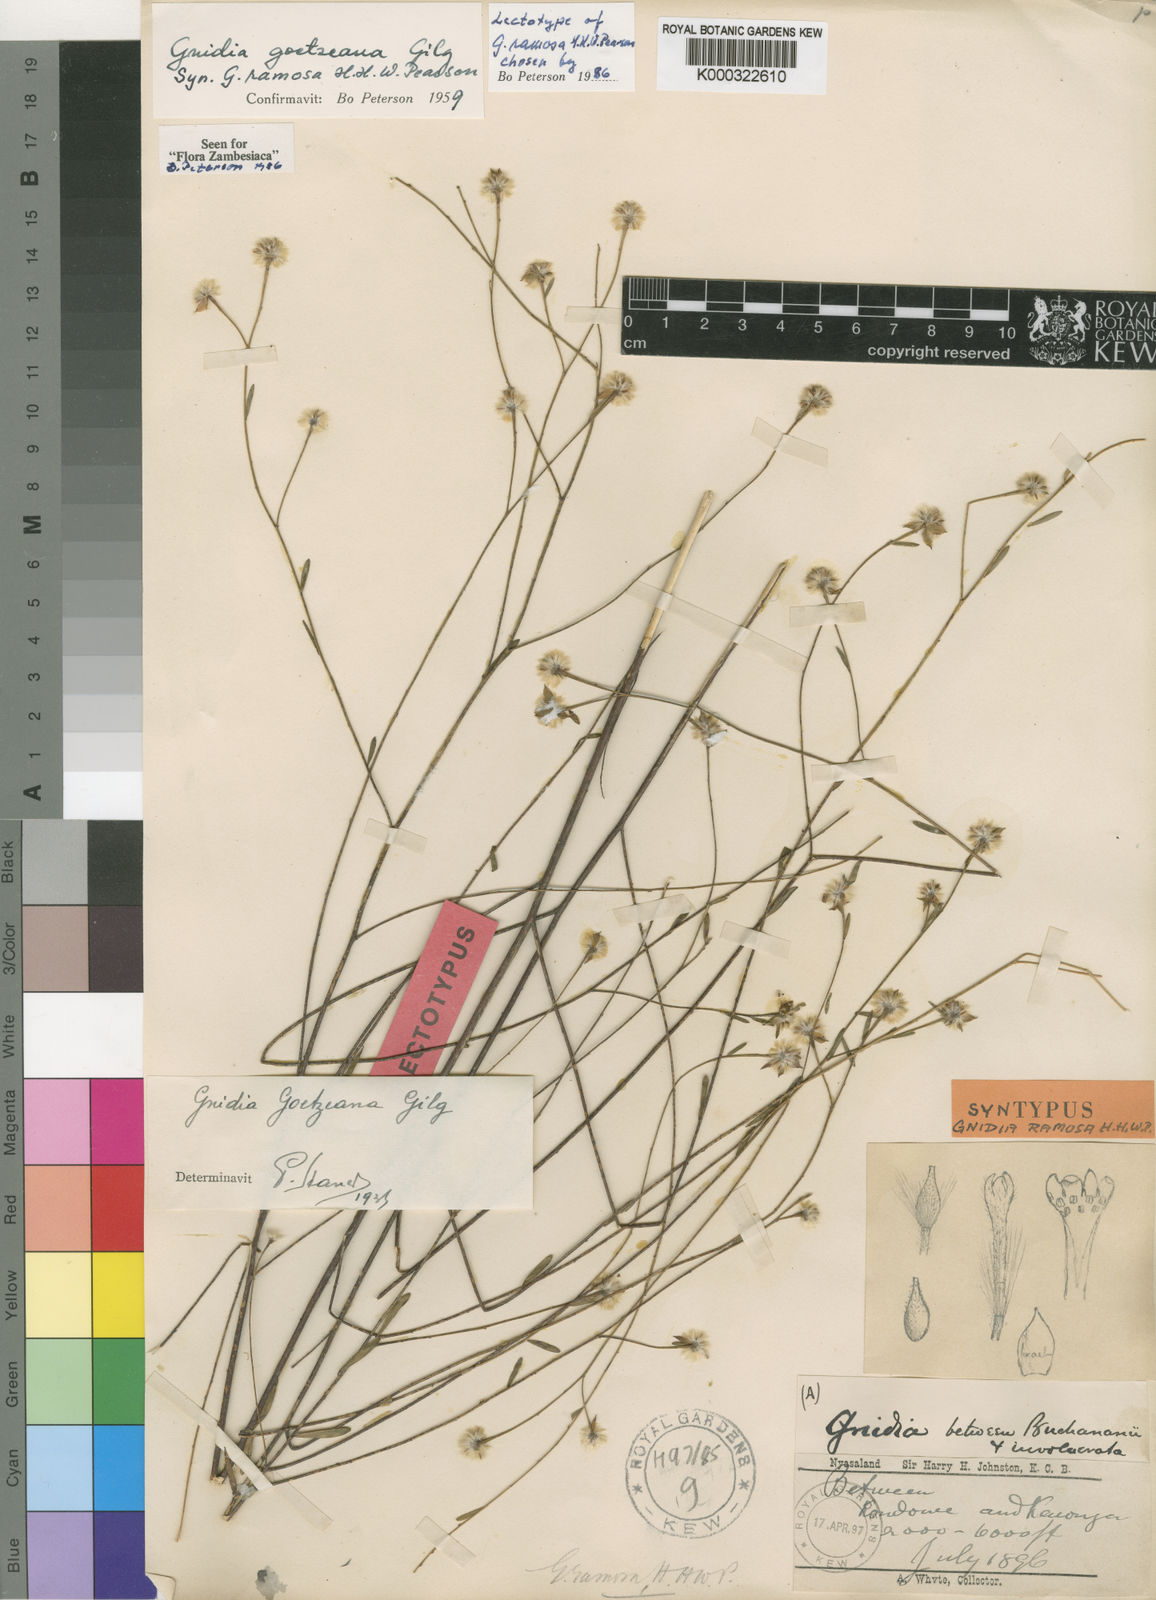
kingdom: Plantae
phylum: Tracheophyta
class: Magnoliopsida
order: Malvales
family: Thymelaeaceae
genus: Gnidia
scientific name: Gnidia goetzeana
